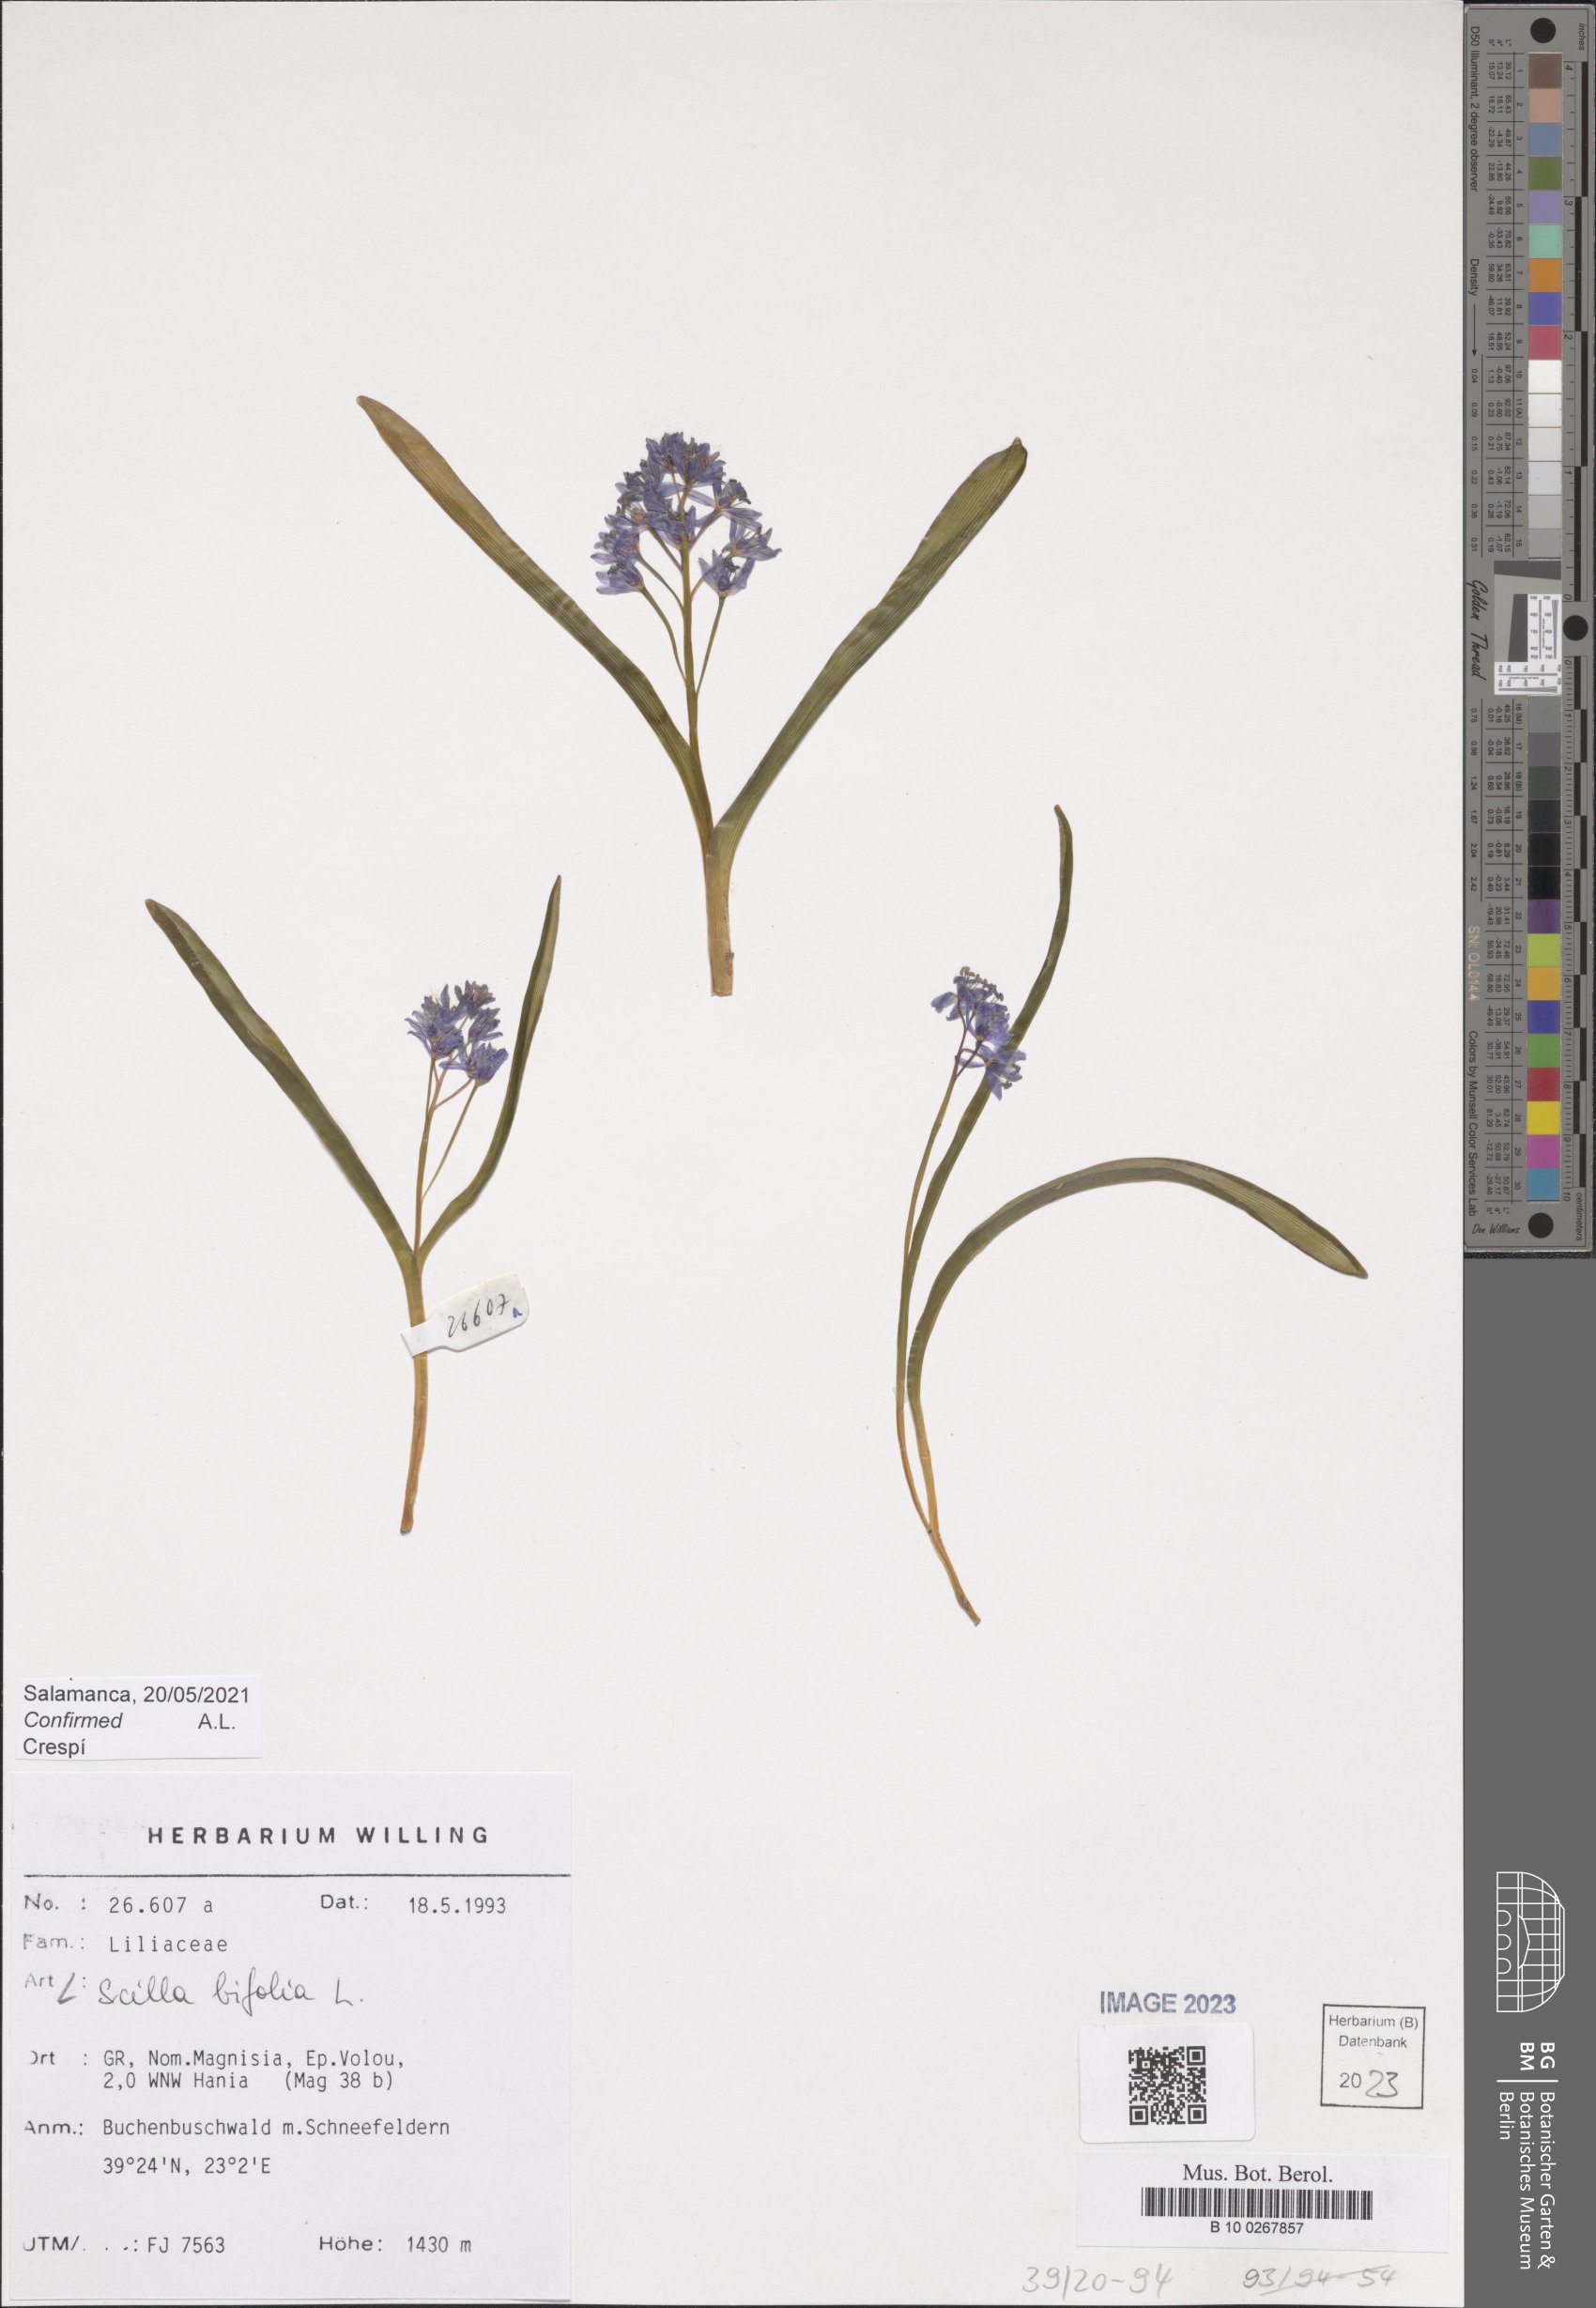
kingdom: Plantae
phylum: Tracheophyta
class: Liliopsida
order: Asparagales
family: Asparagaceae
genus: Scilla
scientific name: Scilla bifolia
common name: Alpine squill
